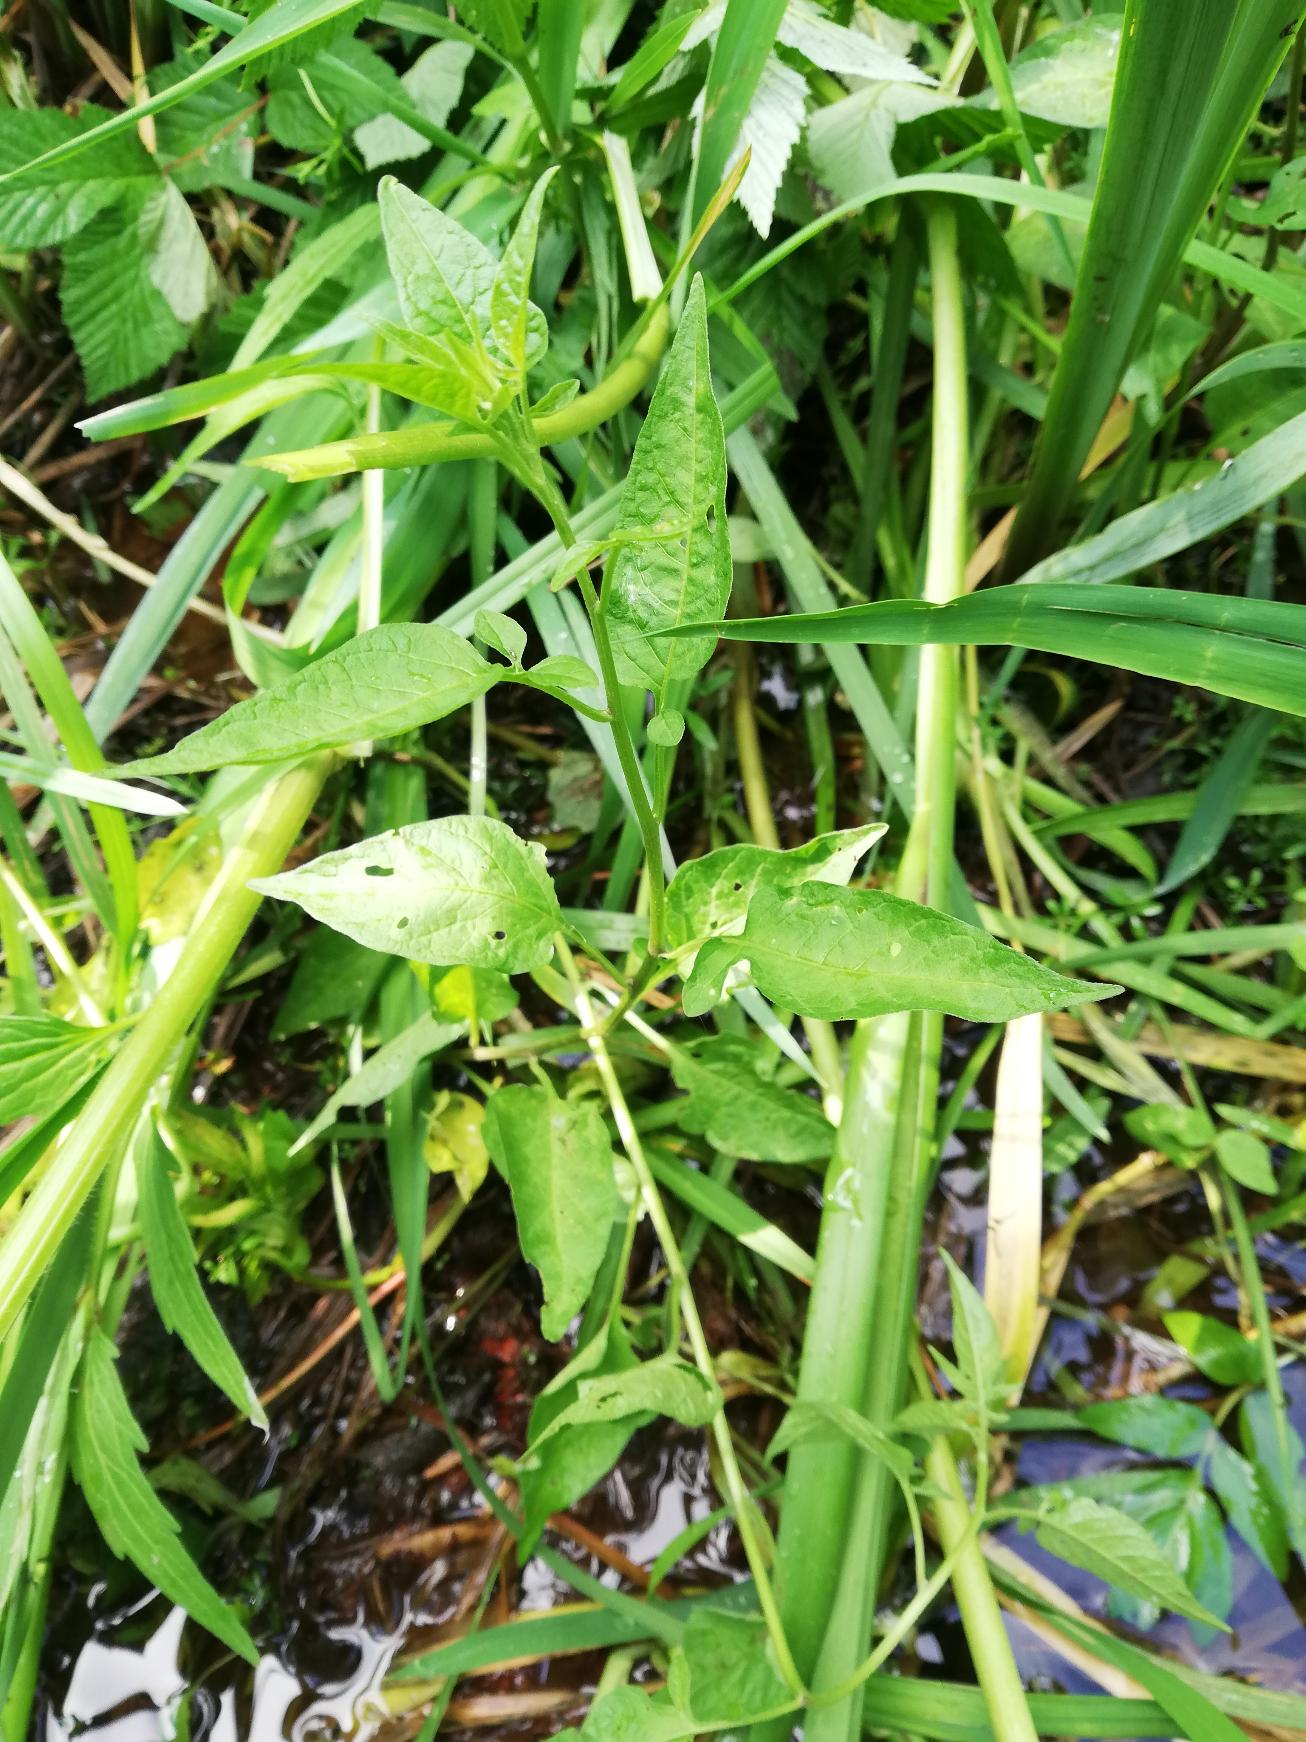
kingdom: Plantae
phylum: Tracheophyta
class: Magnoliopsida
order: Solanales
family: Solanaceae
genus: Solanum
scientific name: Solanum dulcamara
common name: Bittersød natskygge
